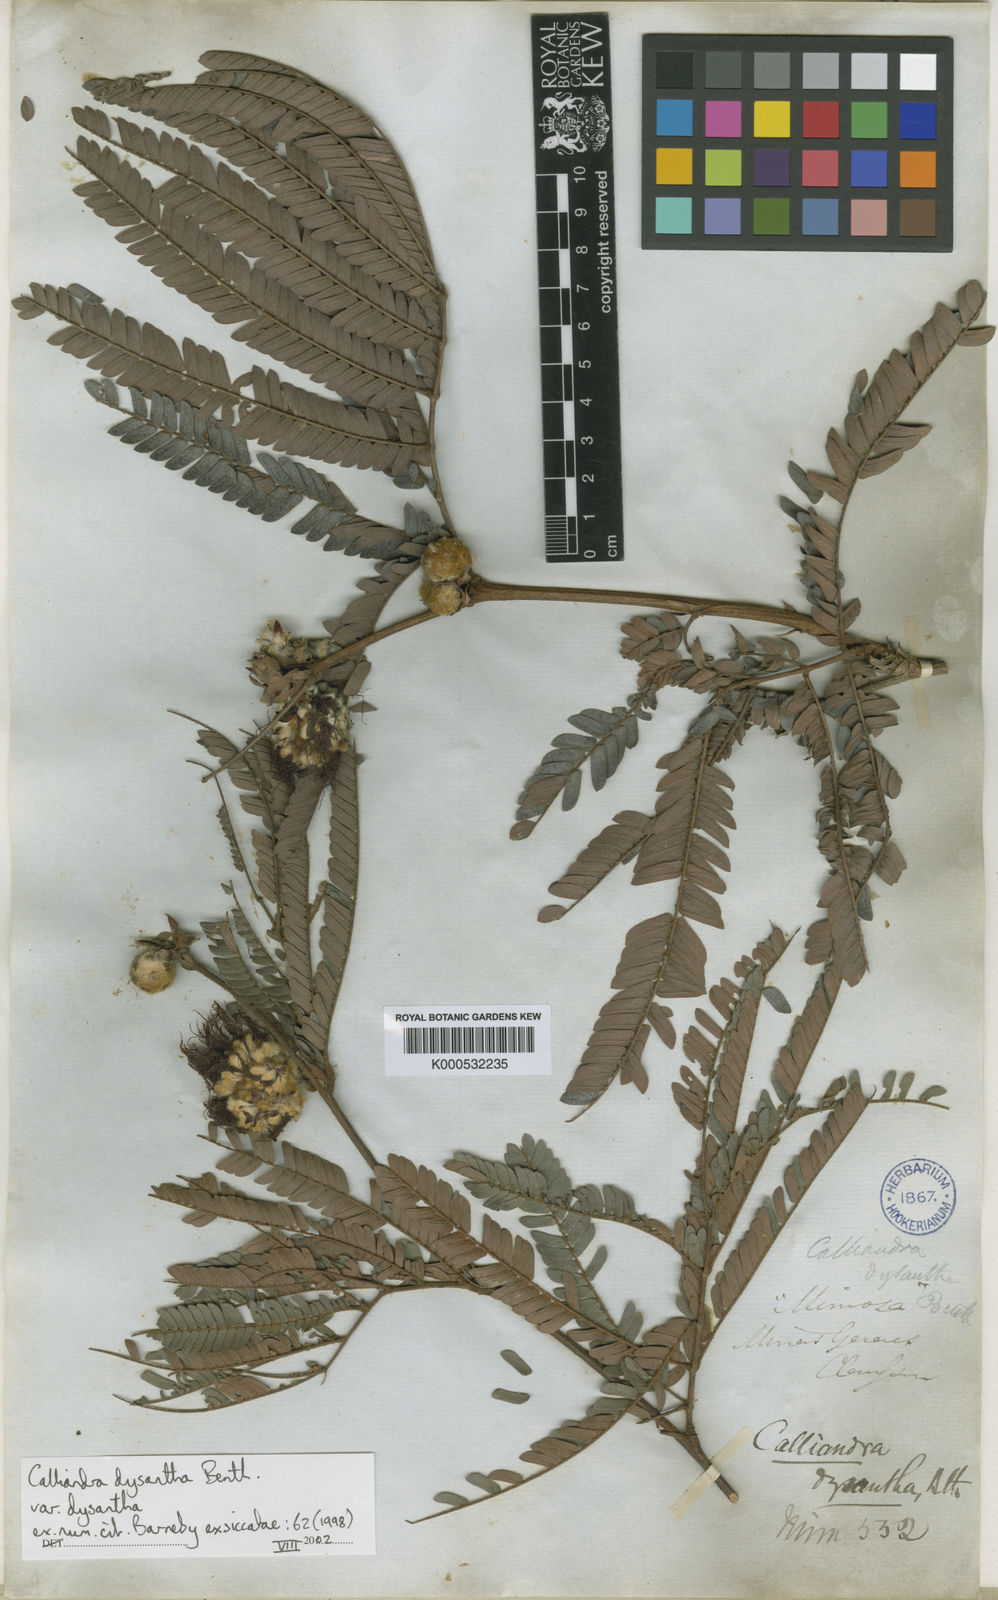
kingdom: Plantae
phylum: Tracheophyta
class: Magnoliopsida
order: Fabales
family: Fabaceae
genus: Calliandra
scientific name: Calliandra dysantha
